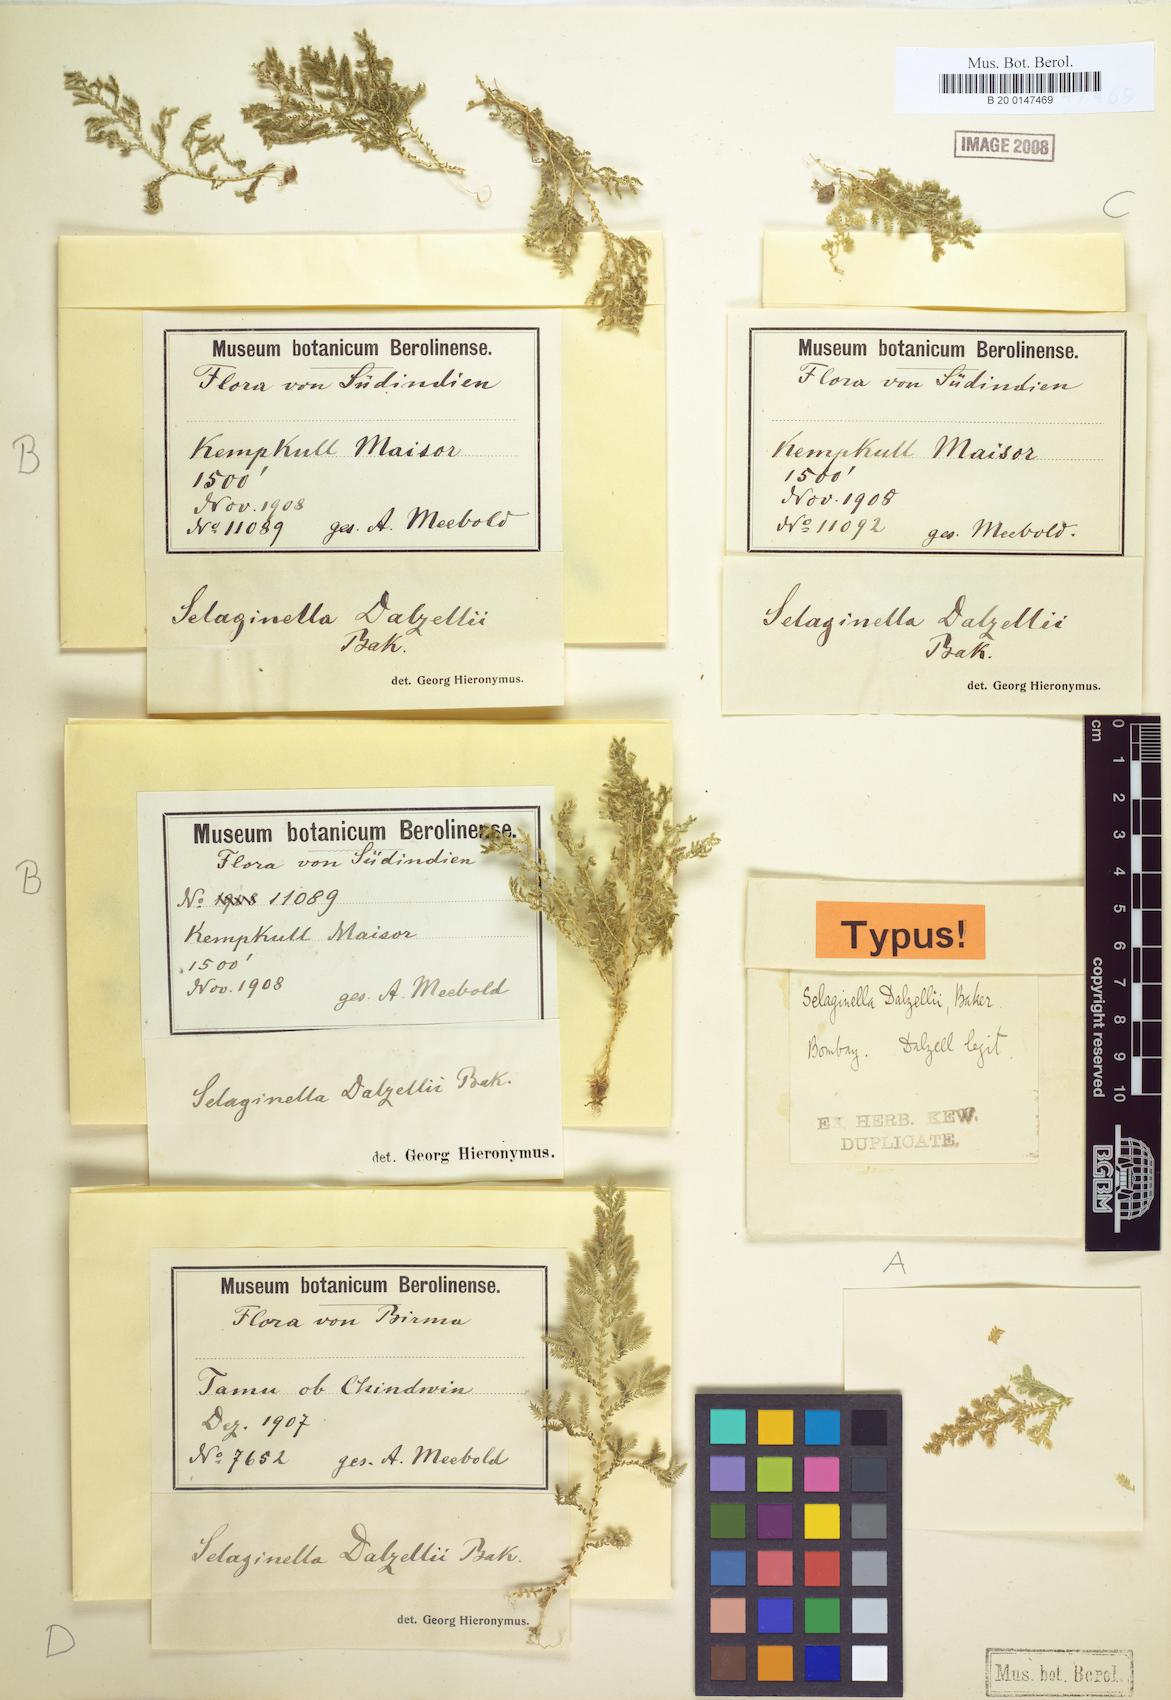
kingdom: Plantae
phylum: Tracheophyta
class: Lycopodiopsida
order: Selaginellales
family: Selaginellaceae
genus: Selaginella
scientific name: Selaginella proniflora
